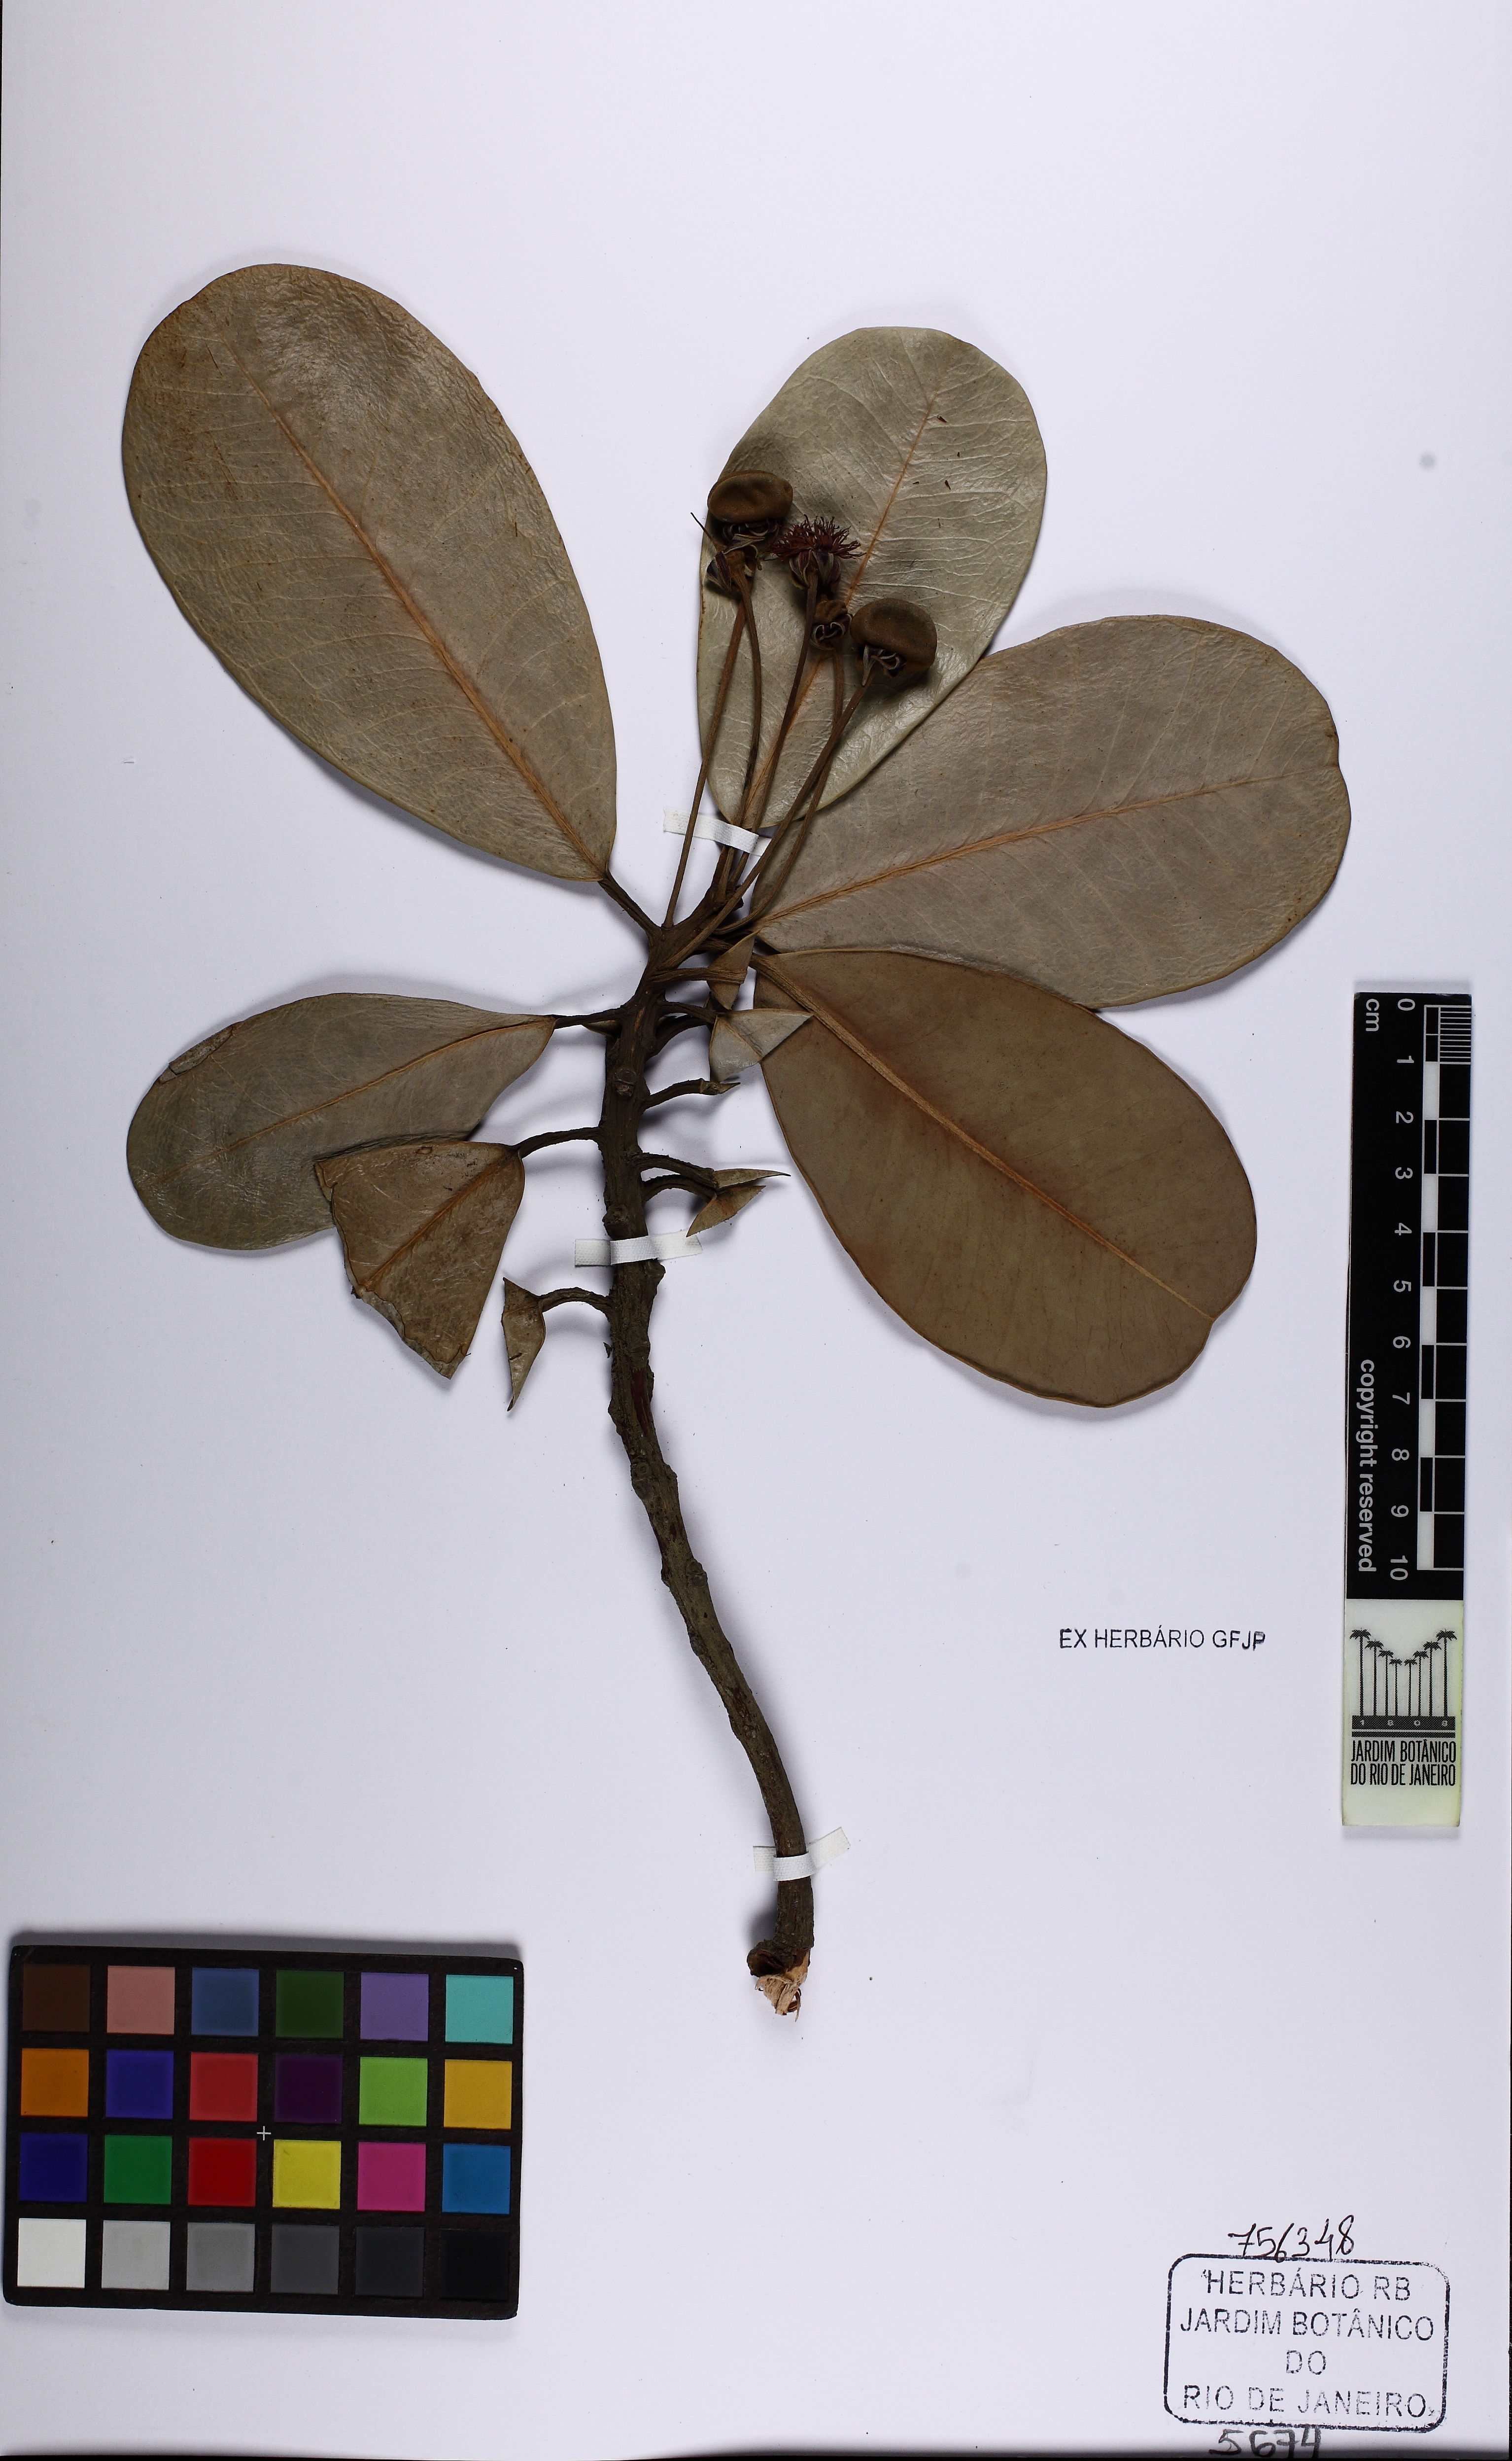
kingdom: Plantae
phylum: Tracheophyta
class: Magnoliopsida
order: Ericales
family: Sapotaceae
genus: Mimusops
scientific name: Mimusops coriacea
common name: Mimusops
